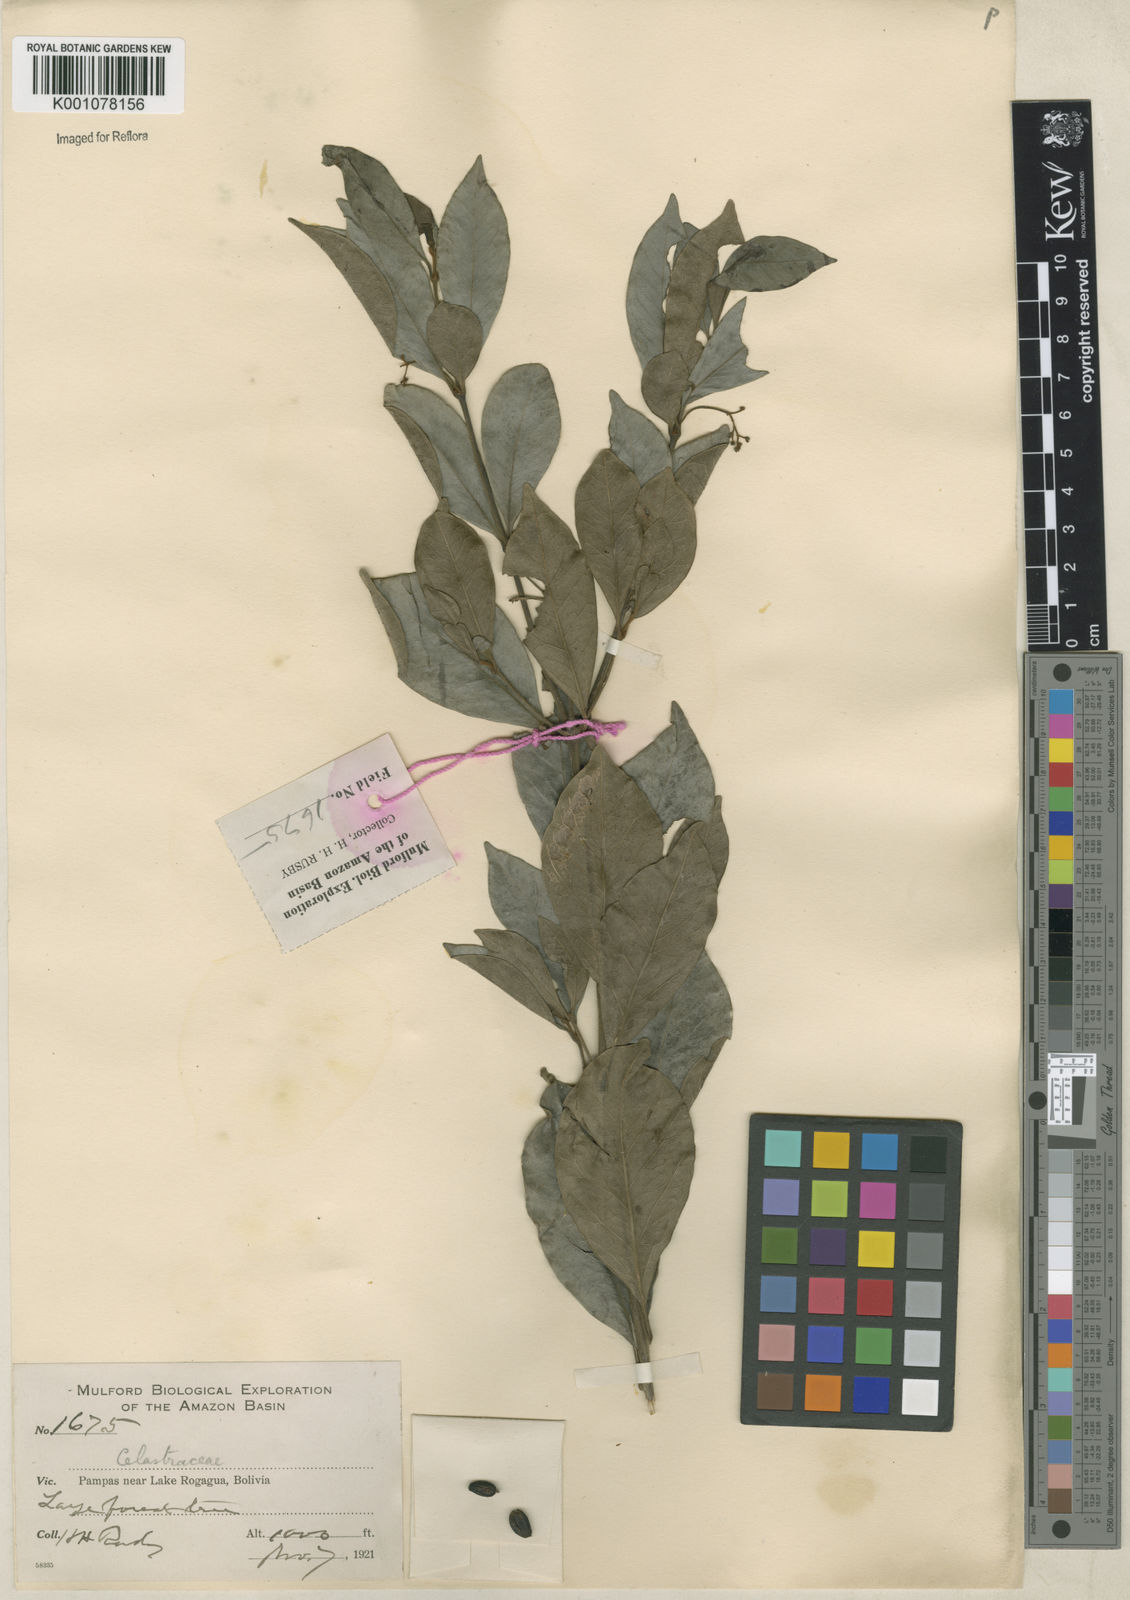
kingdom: Plantae
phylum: Tracheophyta
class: Magnoliopsida
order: Celastrales
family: Celastraceae
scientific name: Celastraceae
